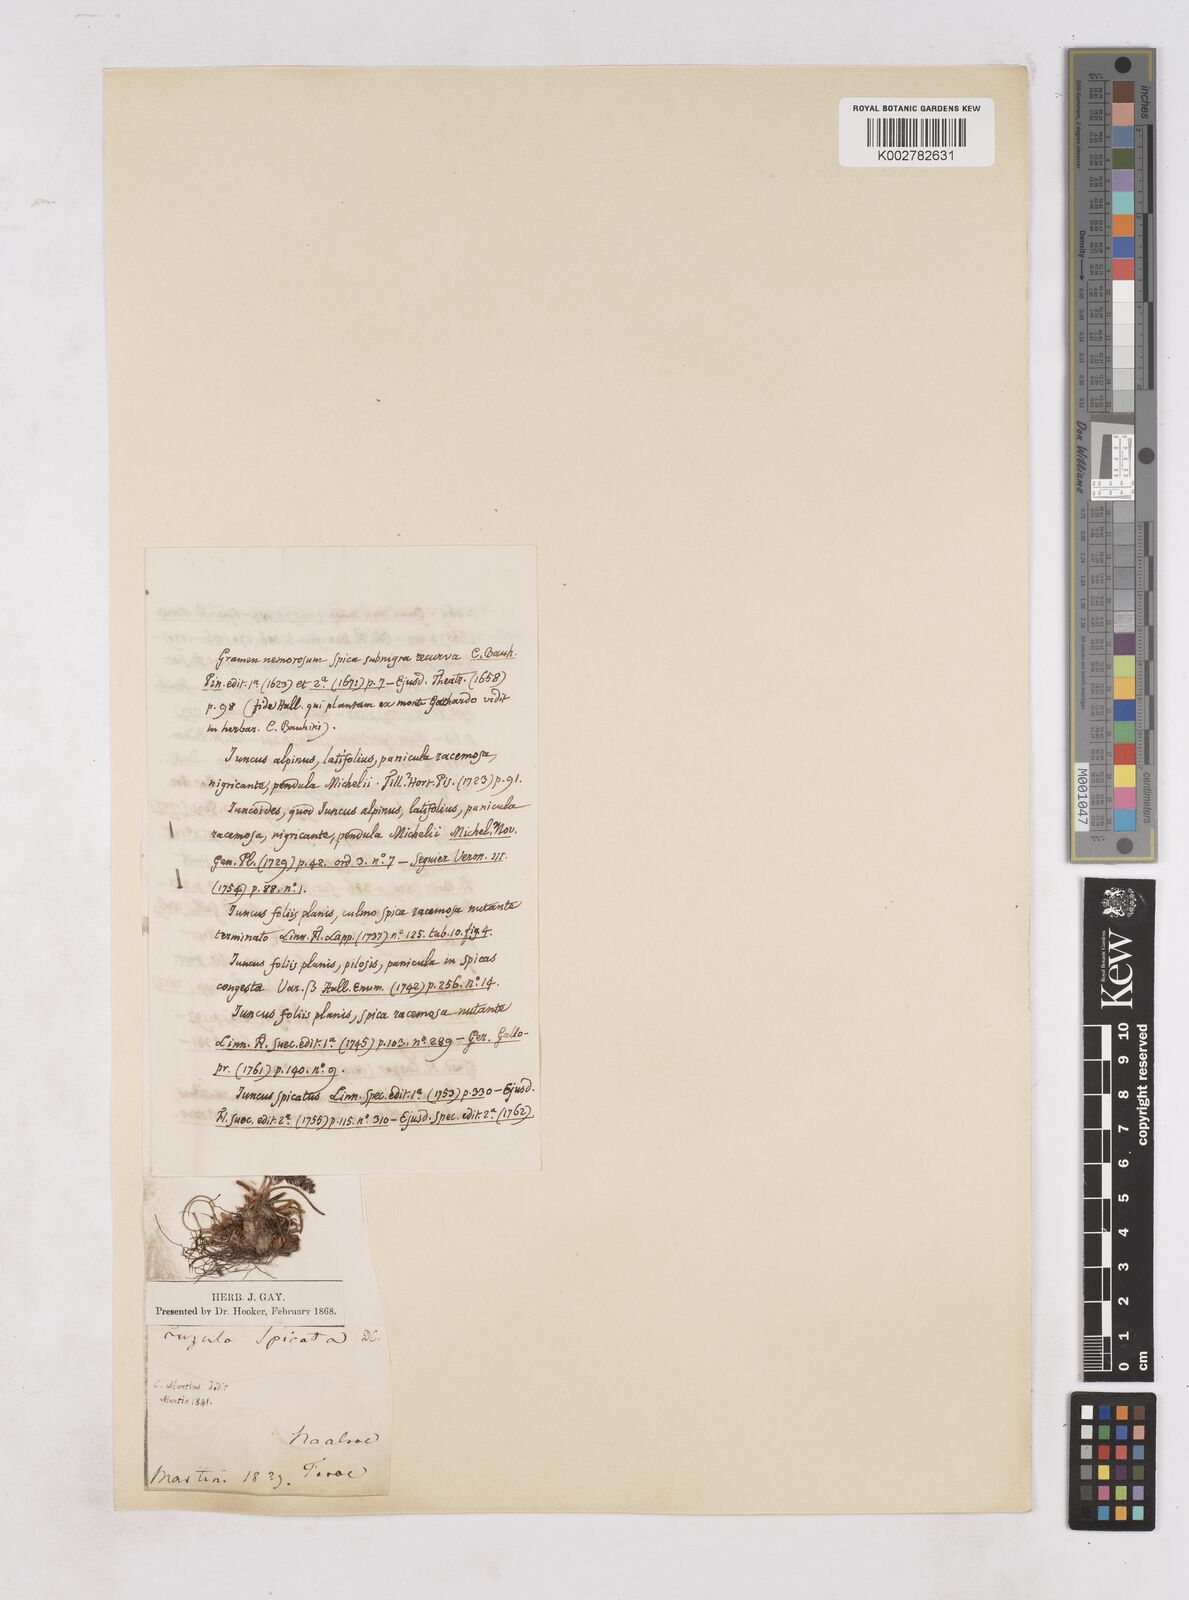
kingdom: Plantae
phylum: Tracheophyta
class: Liliopsida
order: Poales
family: Juncaceae
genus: Luzula
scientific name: Luzula spicata
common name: Spiked wood-rush
